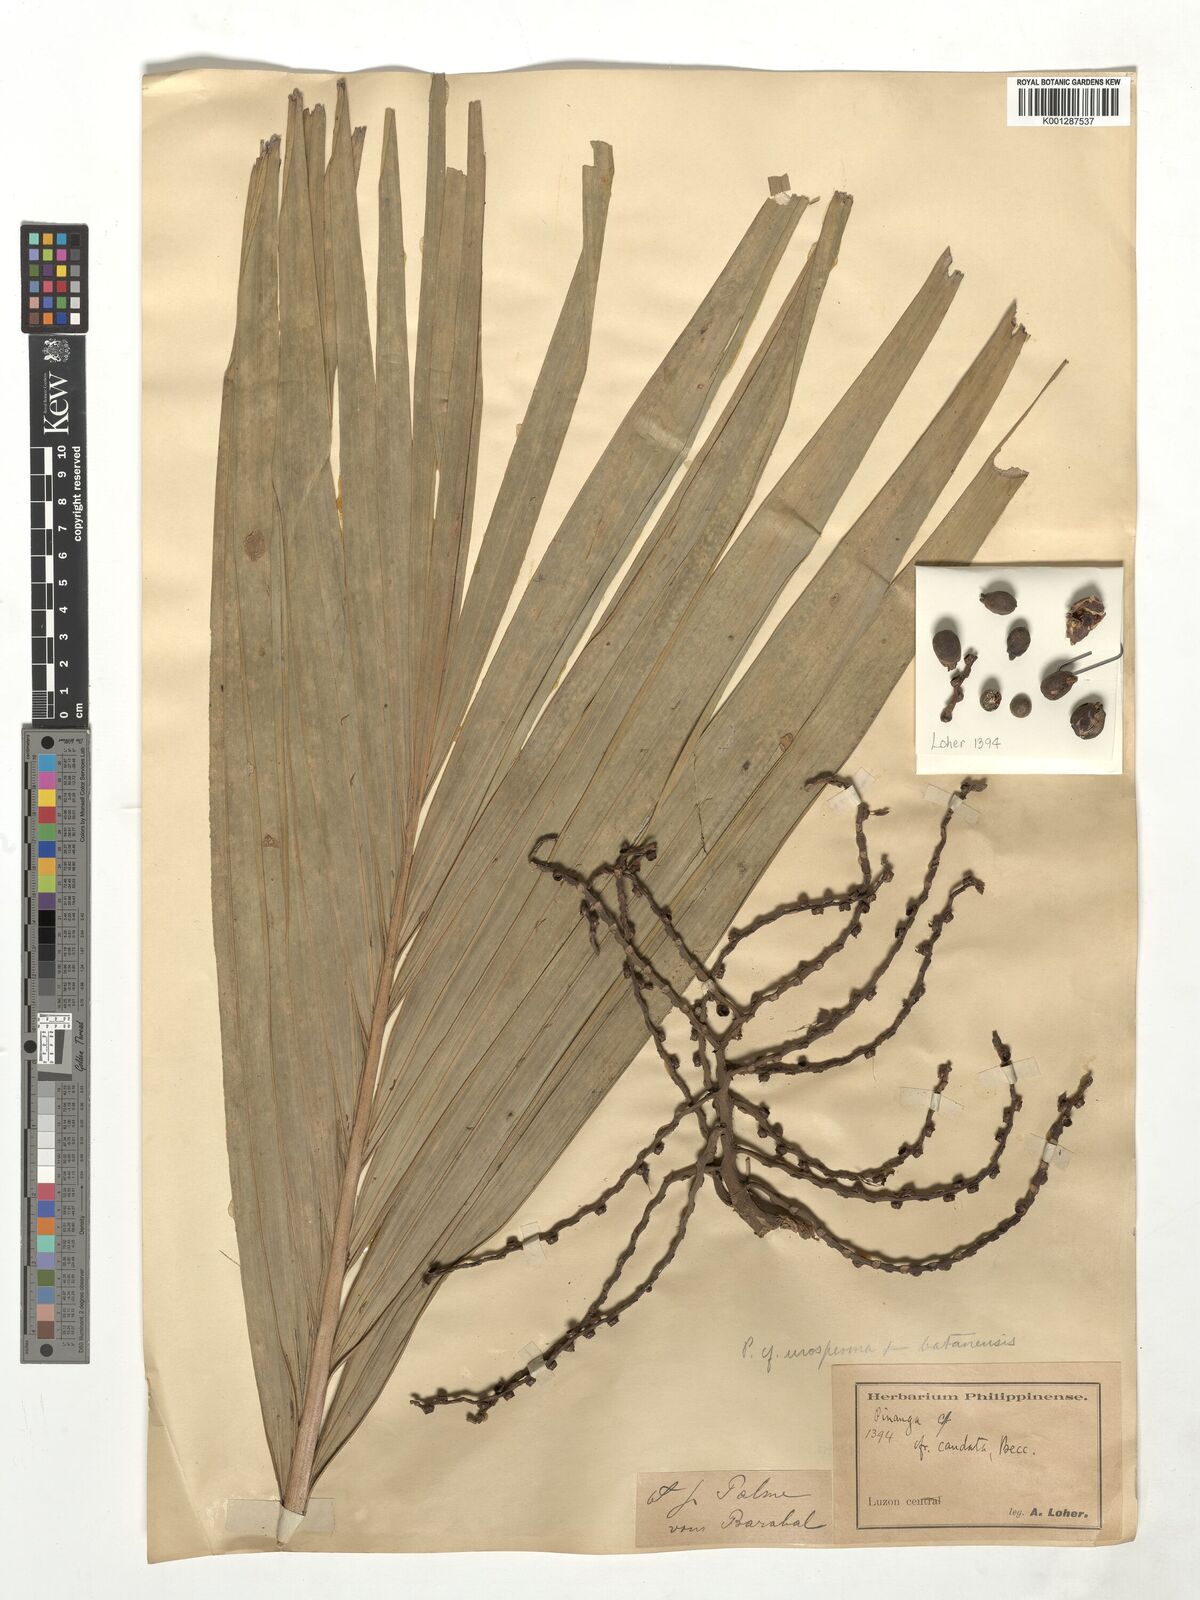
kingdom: Plantae
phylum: Tracheophyta
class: Liliopsida
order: Arecales
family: Arecaceae
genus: Pinanga
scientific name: Pinanga
